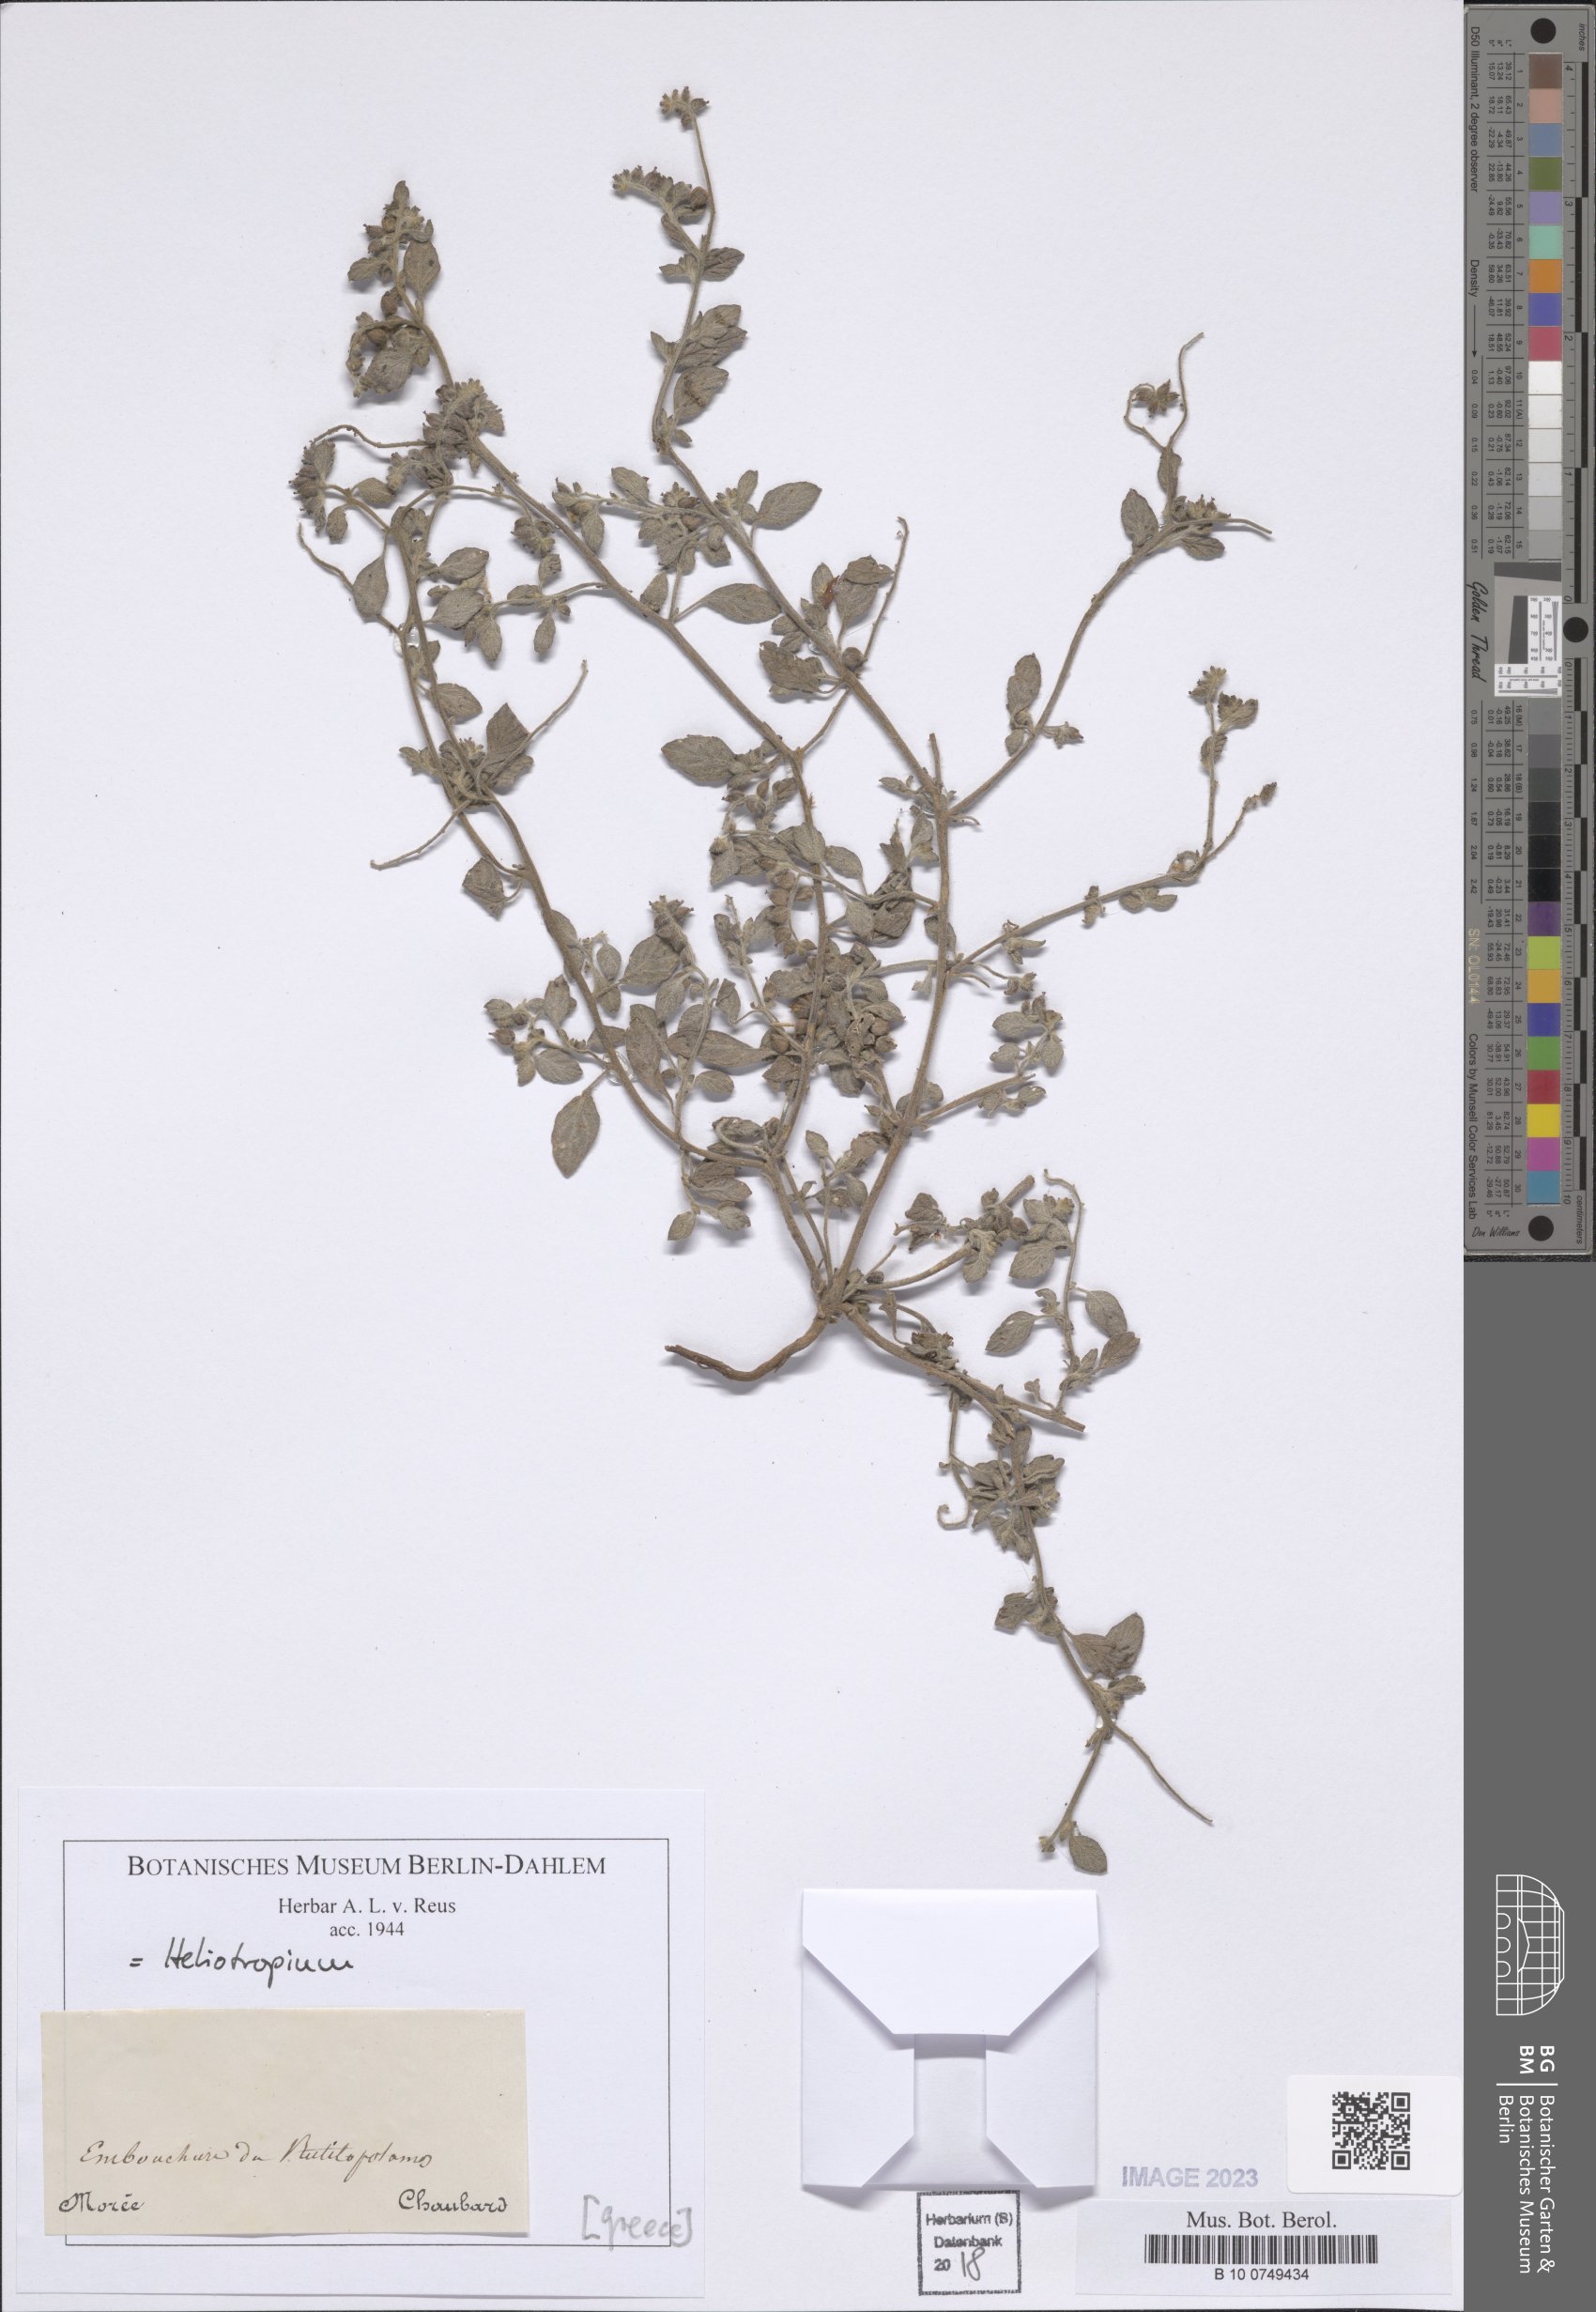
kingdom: Plantae
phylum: Tracheophyta
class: Magnoliopsida
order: Boraginales
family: Heliotropiaceae
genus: Heliotropium
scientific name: Heliotropium
